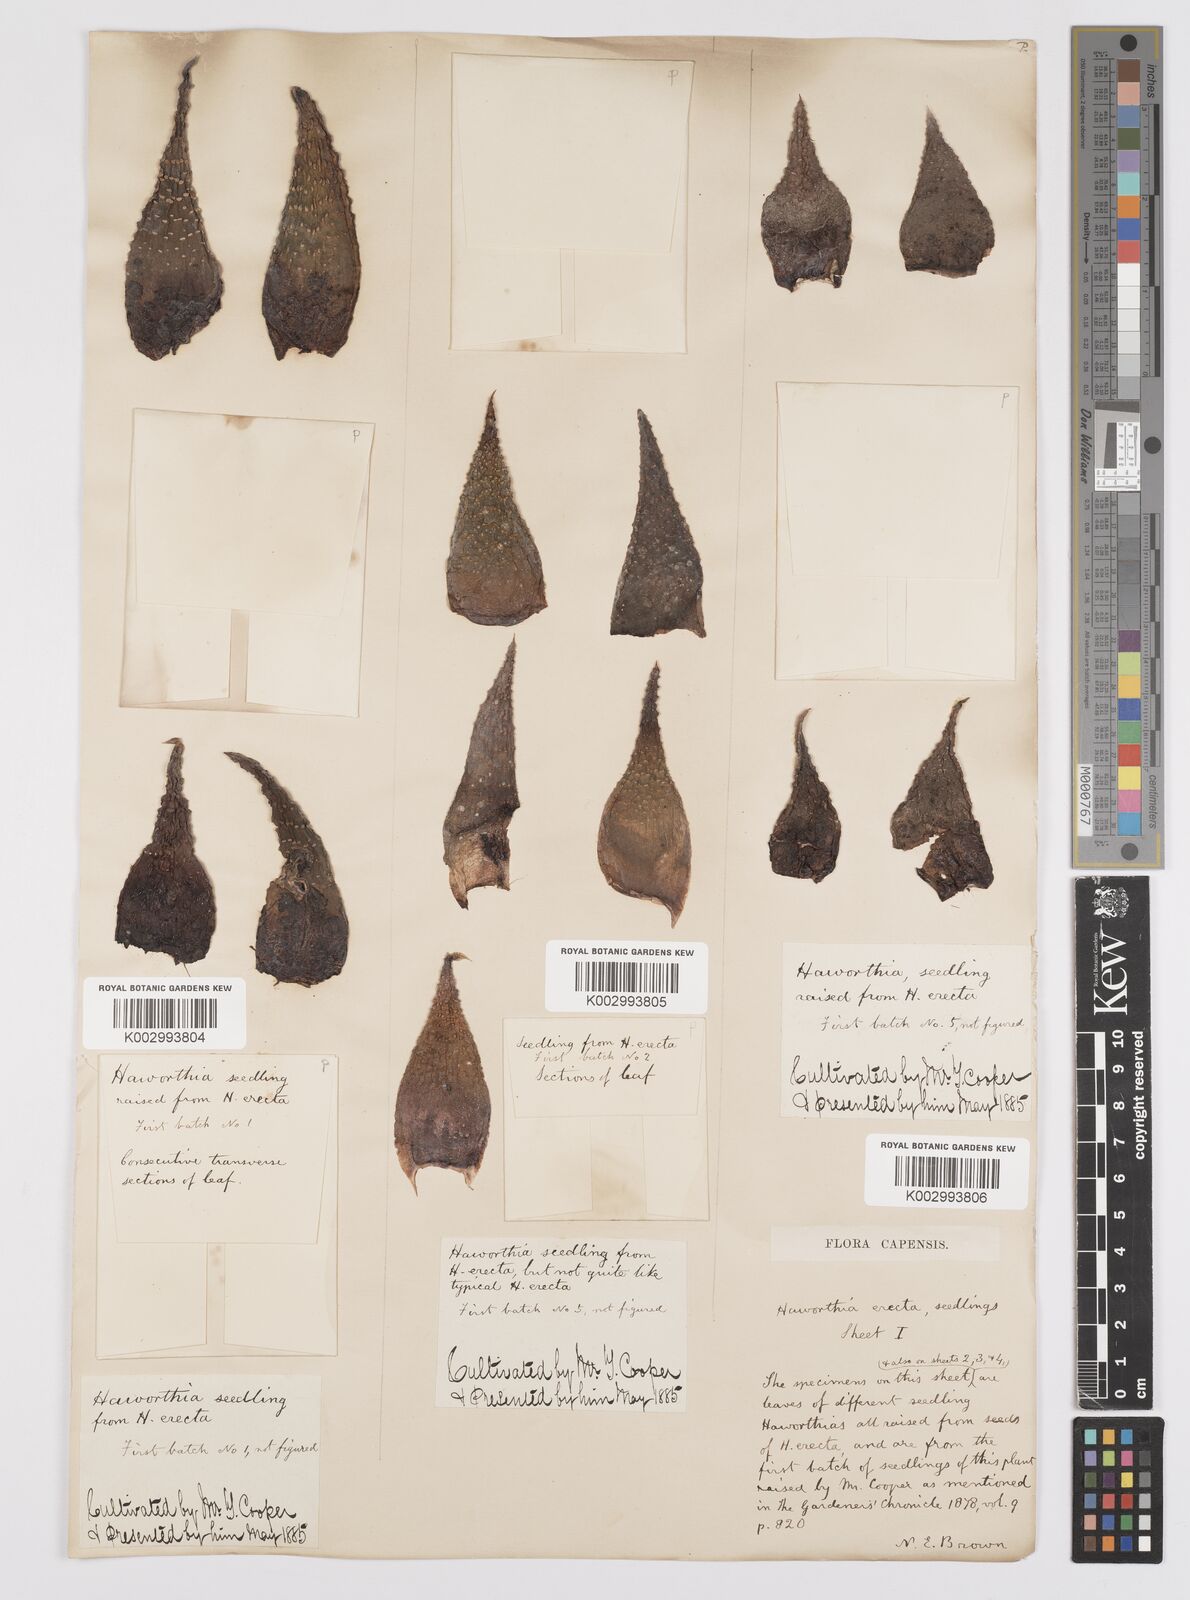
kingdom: Plantae
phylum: Tracheophyta
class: Liliopsida
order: Asparagales
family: Asphodelaceae
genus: Haworthia
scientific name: Haworthia
